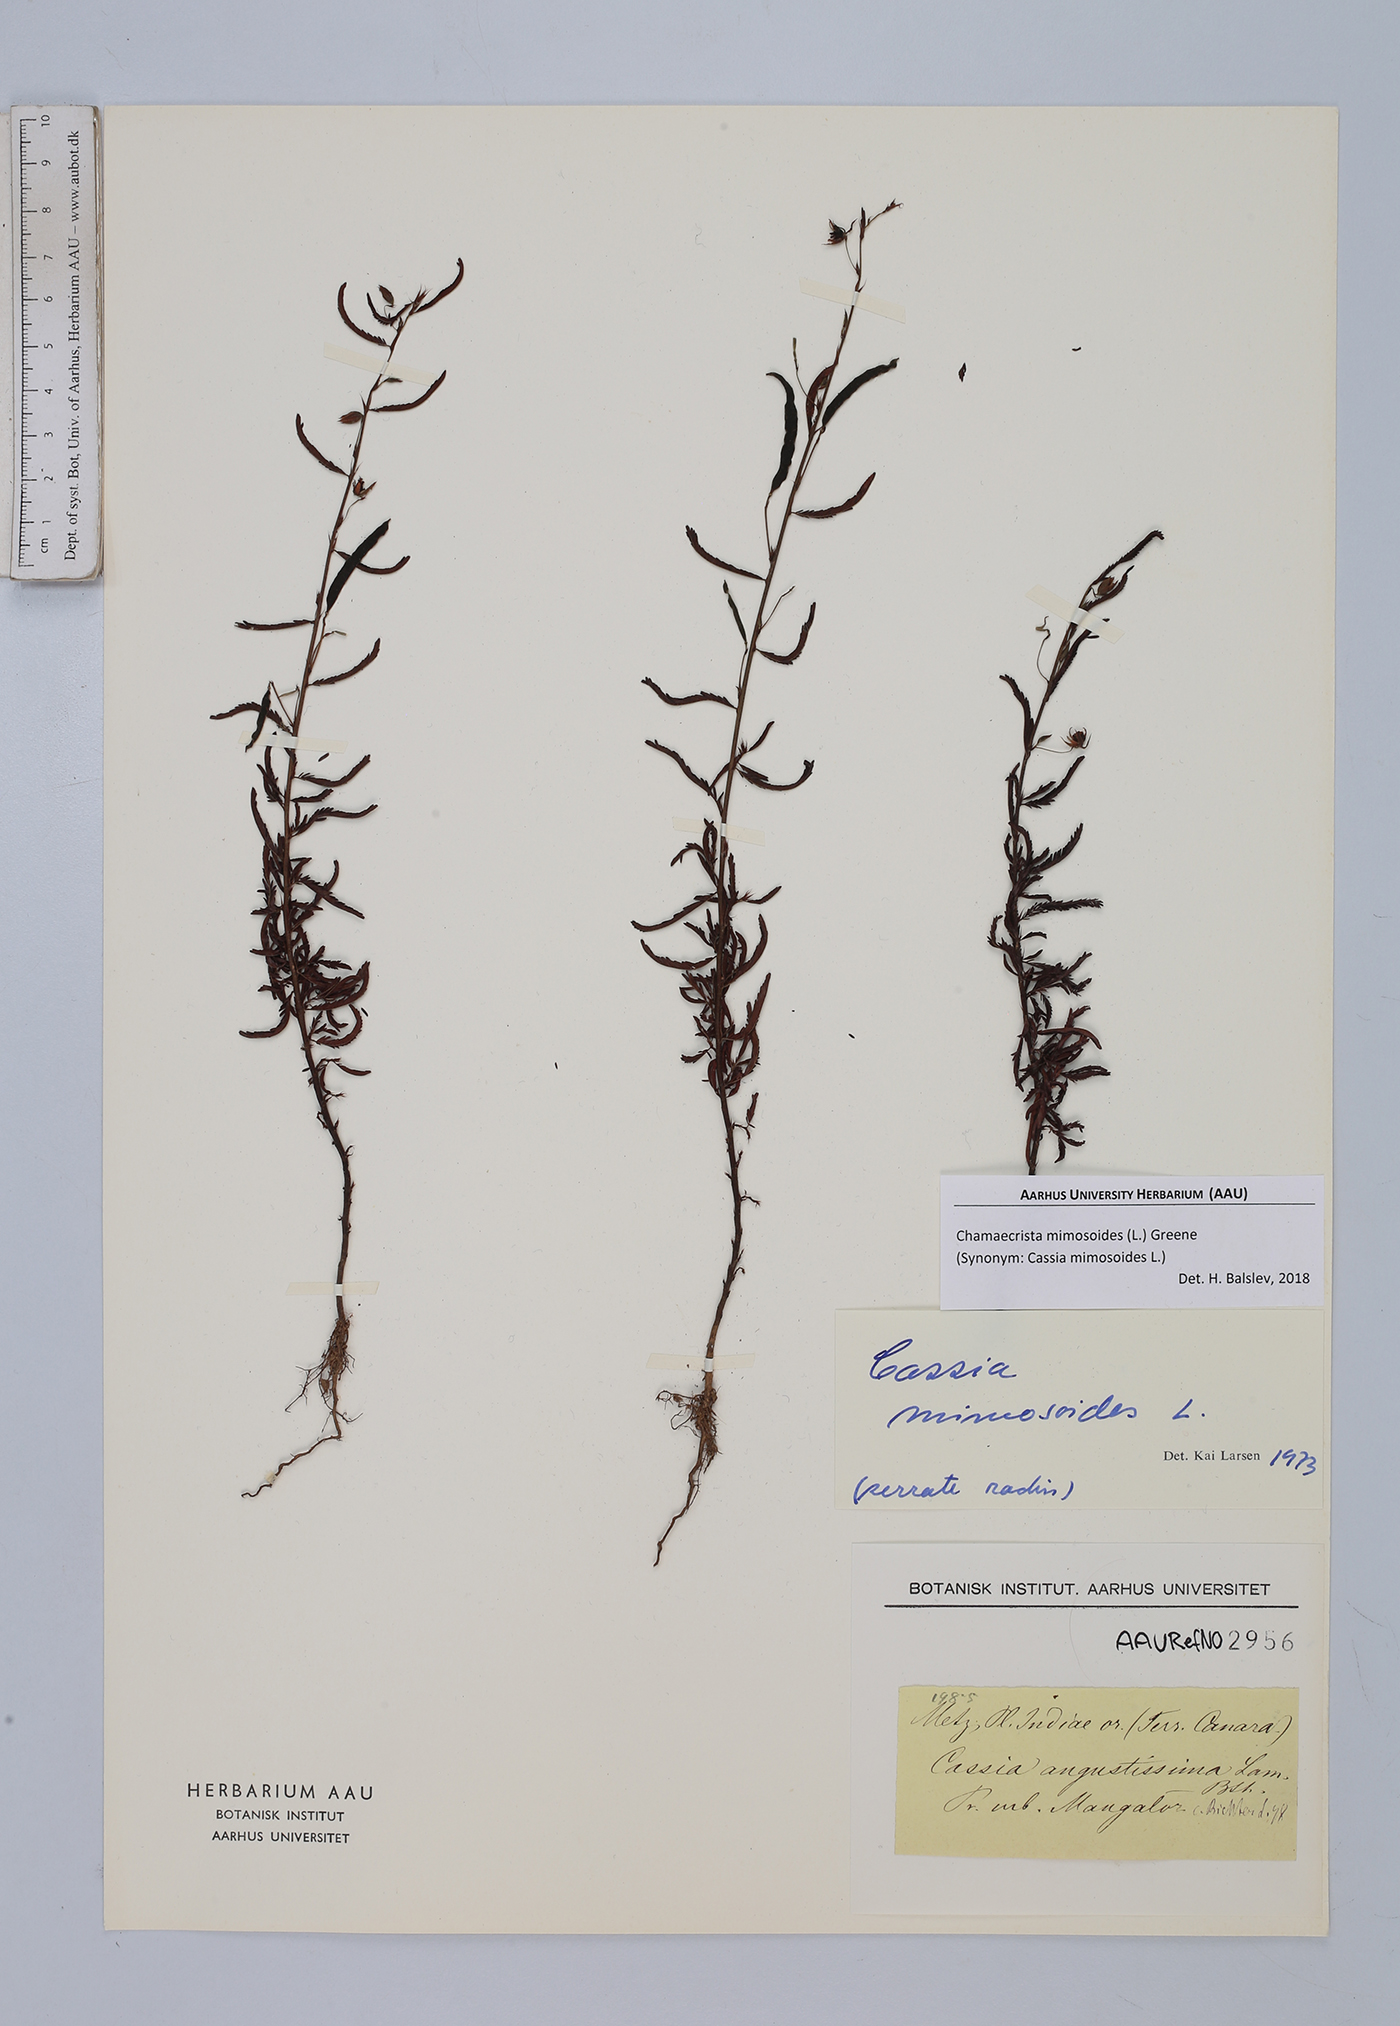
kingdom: Plantae
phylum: Tracheophyta
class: Magnoliopsida
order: Fabales
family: Fabaceae
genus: Chamaecrista
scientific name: Chamaecrista mimosoides
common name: Fish-bone cassia
